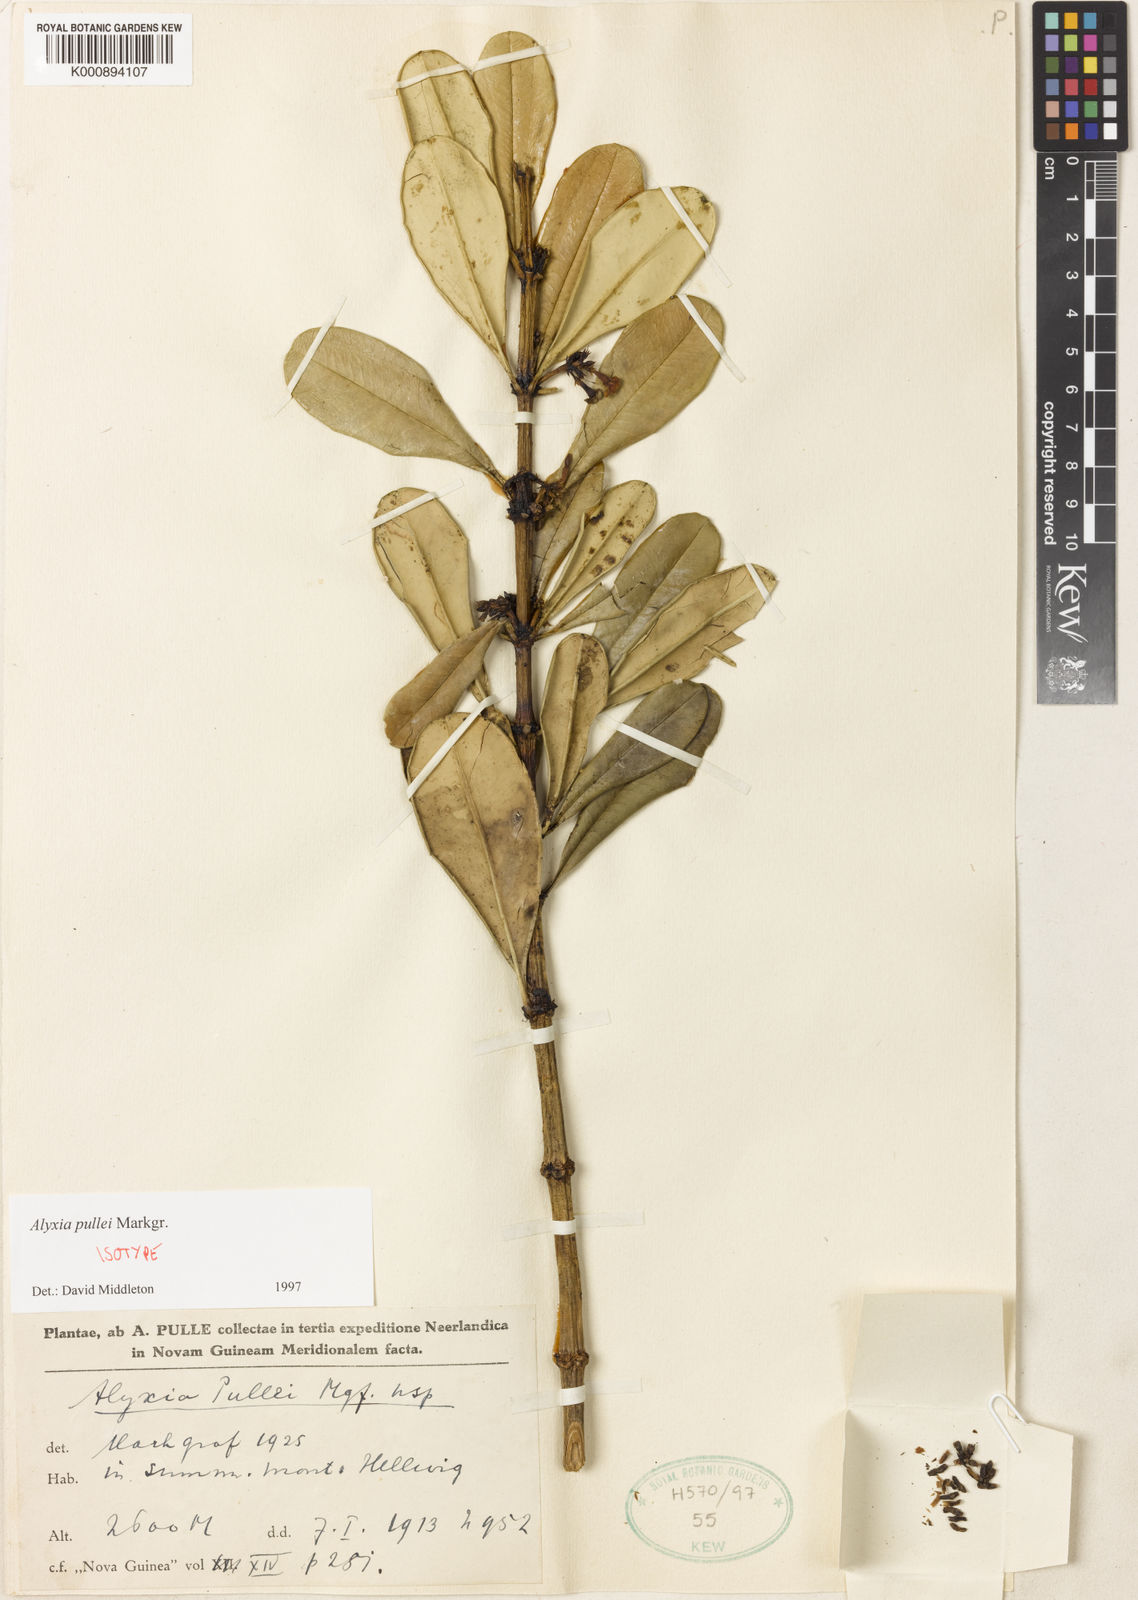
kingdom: Plantae
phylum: Tracheophyta
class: Magnoliopsida
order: Gentianales
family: Apocynaceae
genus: Alyxia
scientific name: Alyxia pullei
